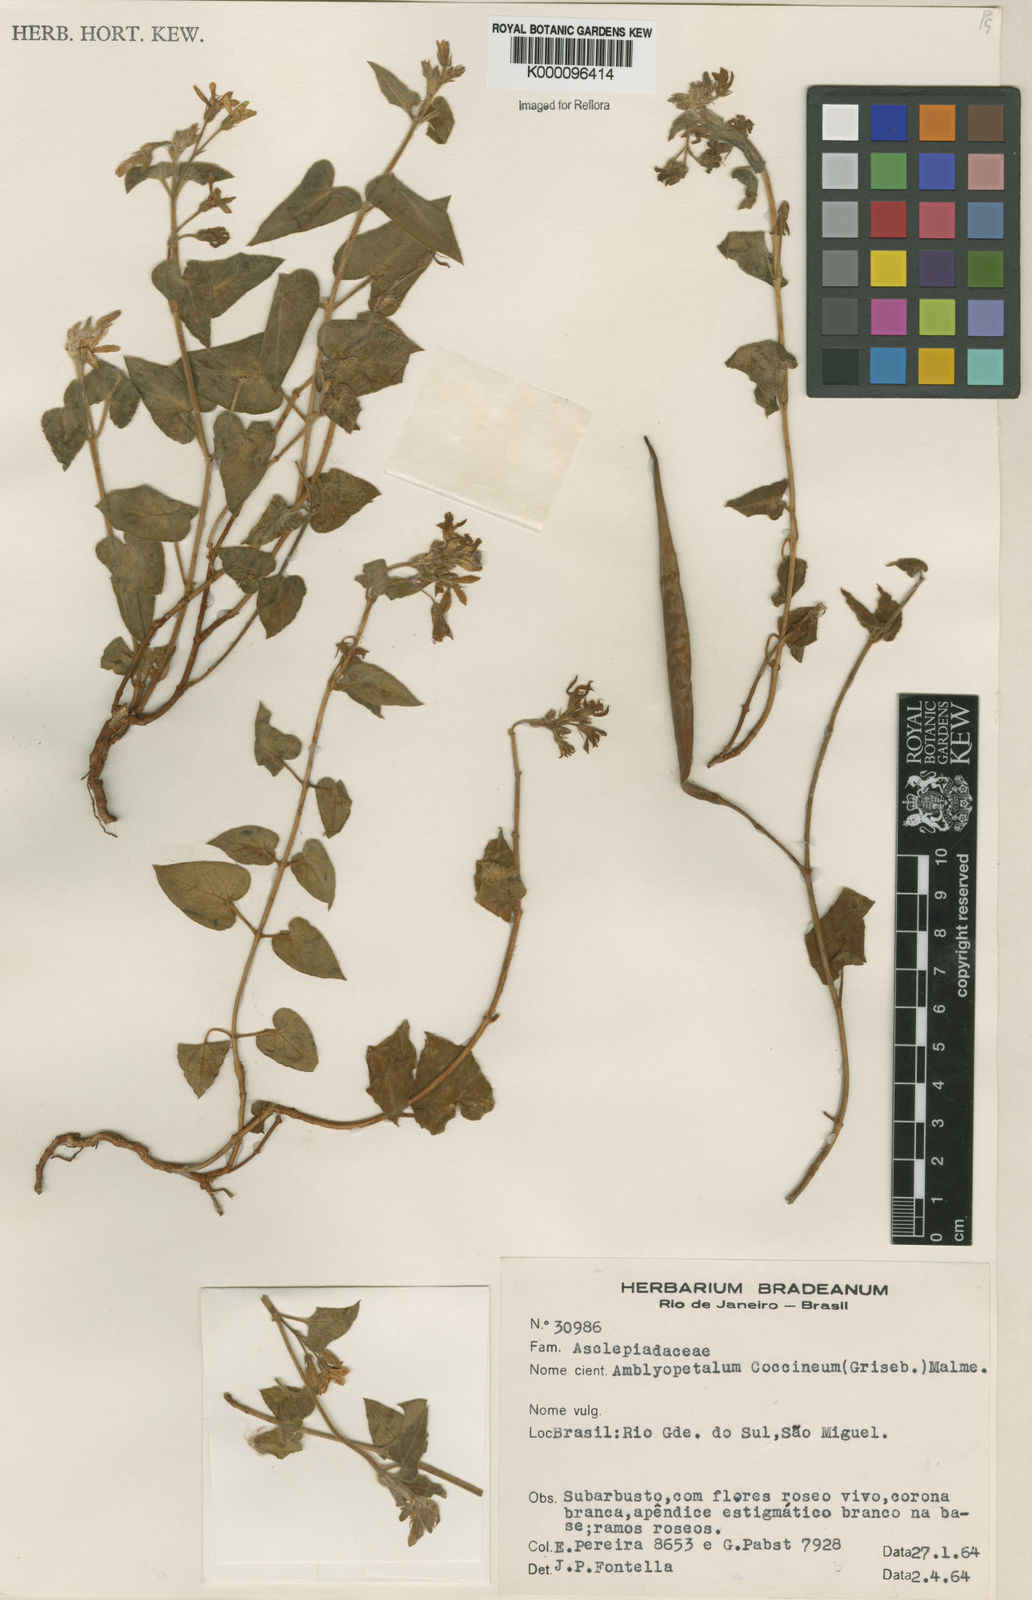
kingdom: Plantae
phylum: Tracheophyta
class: Magnoliopsida
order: Gentianales
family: Apocynaceae
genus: Oxypetalum
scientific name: Oxypetalum coccineum
